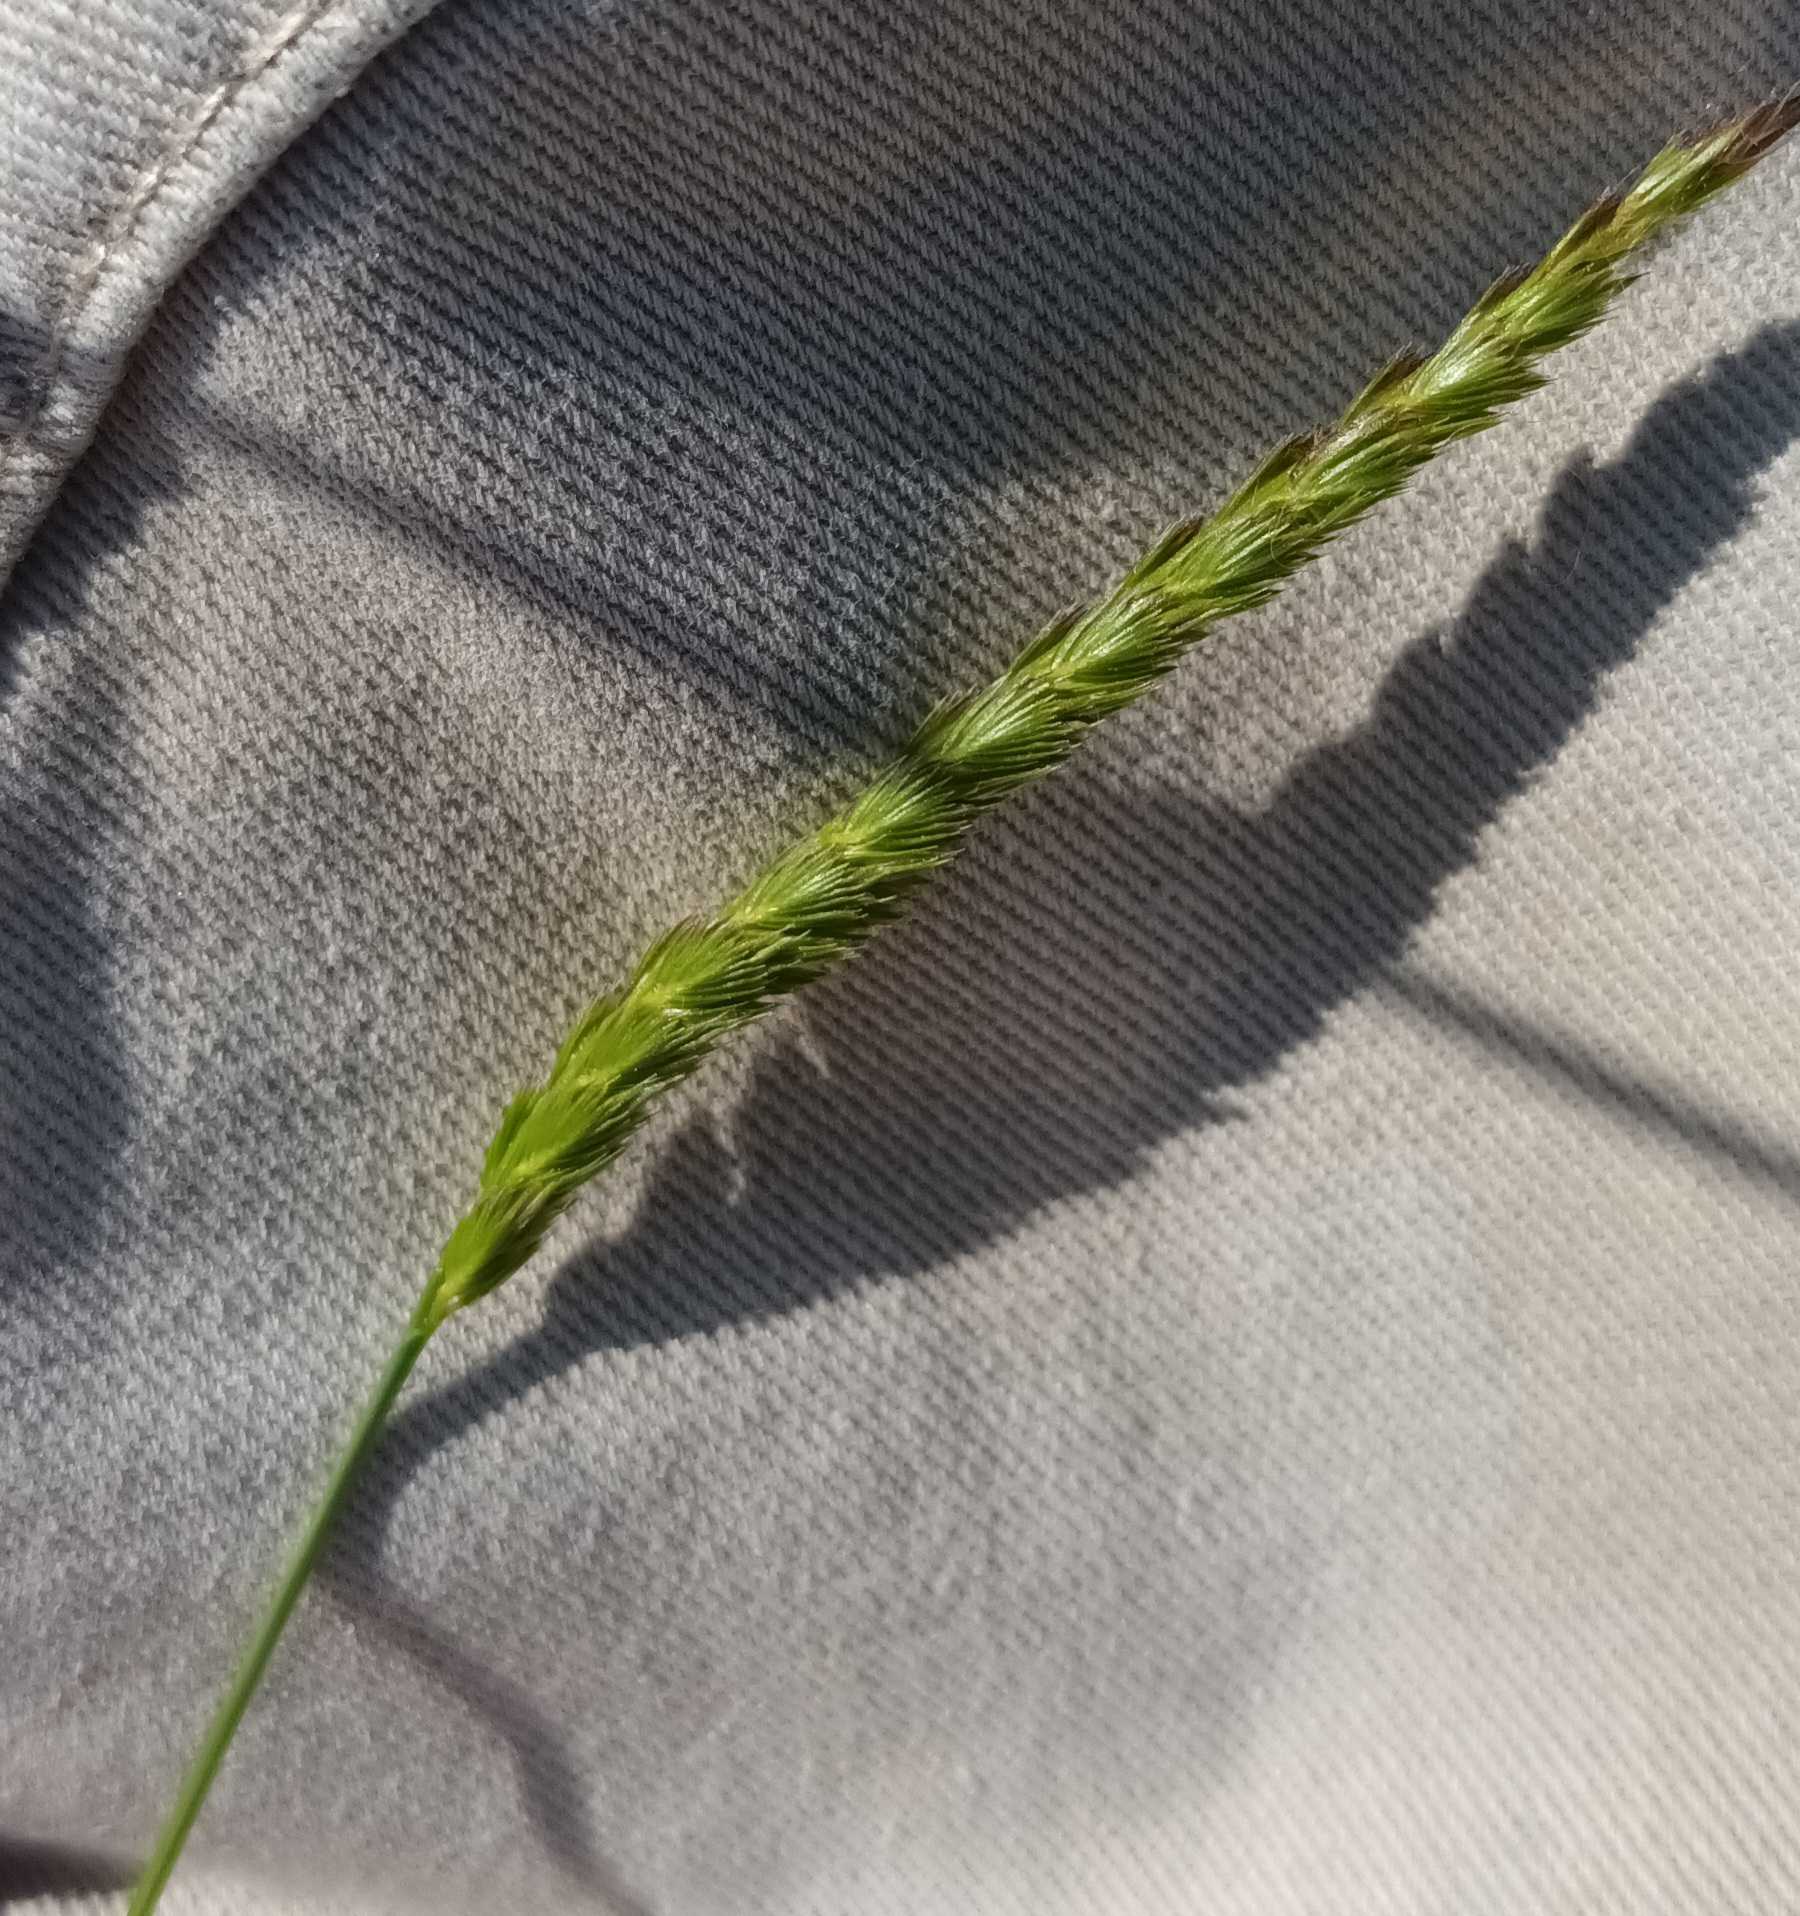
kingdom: Plantae
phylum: Tracheophyta
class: Liliopsida
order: Poales
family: Poaceae
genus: Cynosurus
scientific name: Cynosurus cristatus
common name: Kamgræs
